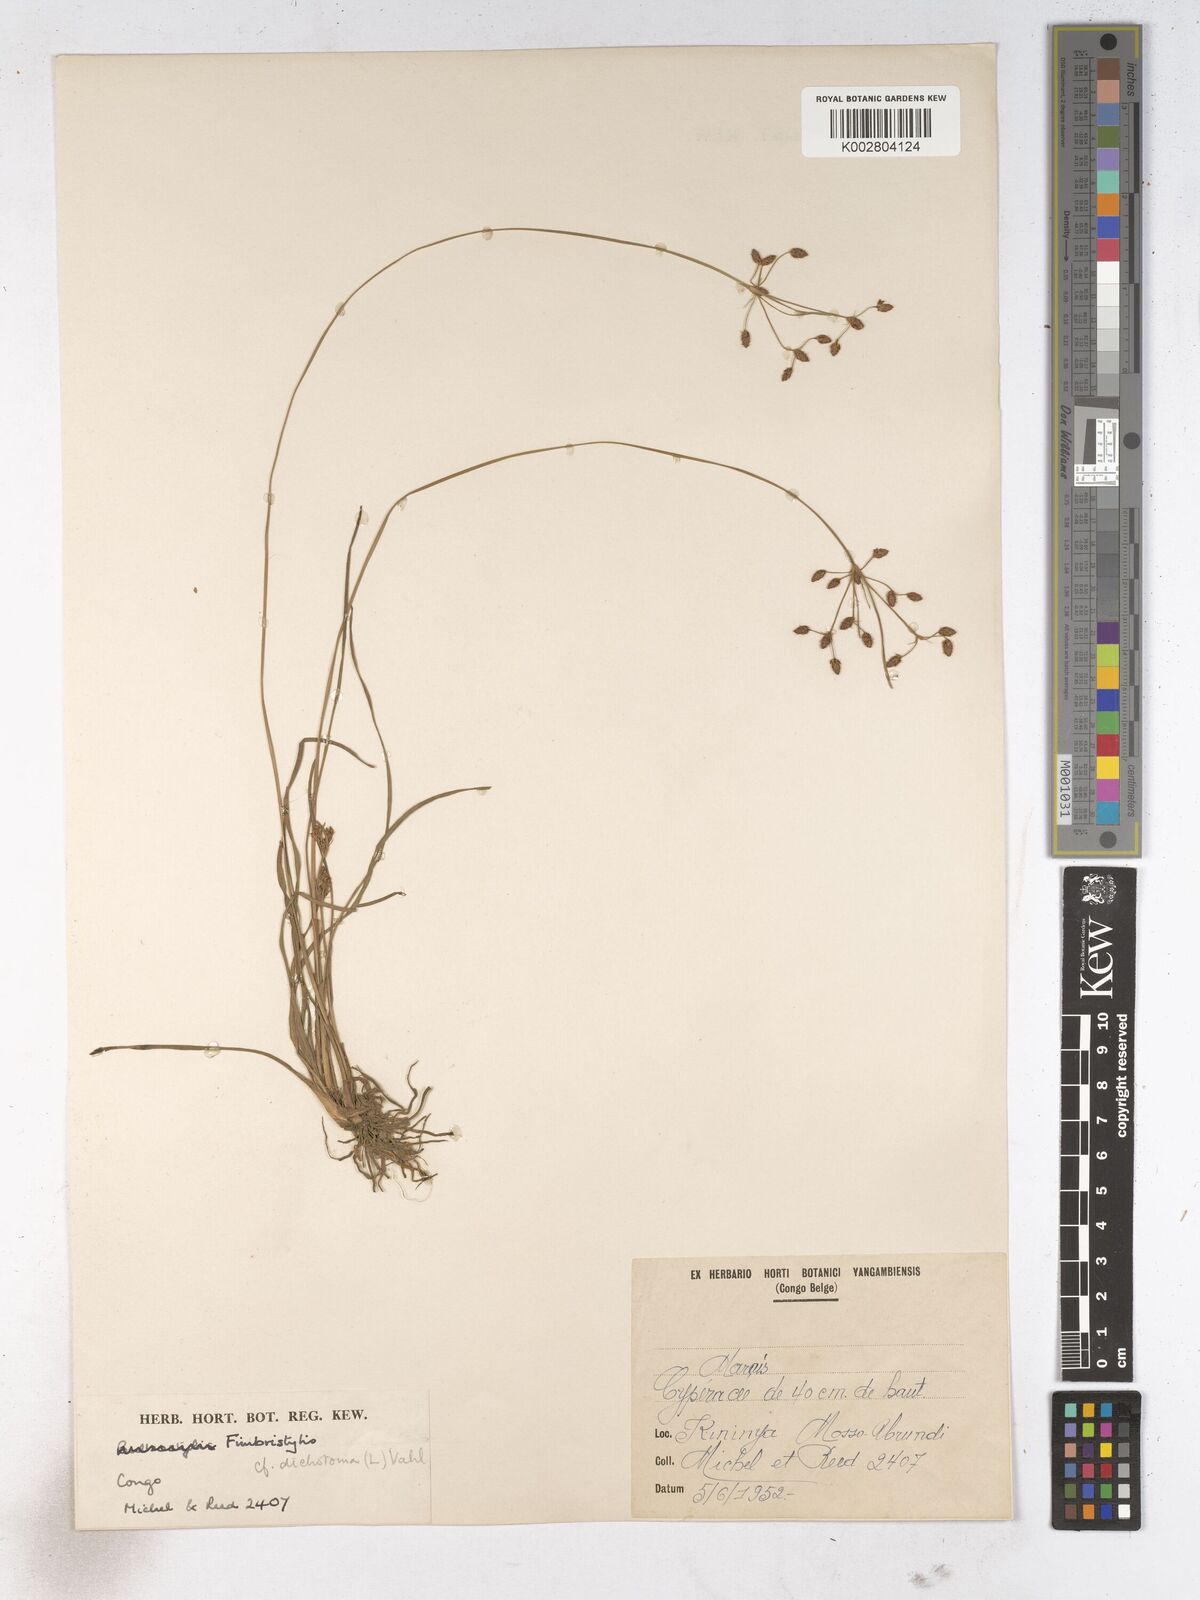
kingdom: Plantae
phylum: Tracheophyta
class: Liliopsida
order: Poales
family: Cyperaceae
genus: Fimbristylis
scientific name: Fimbristylis dichotoma
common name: Forked fimbry
